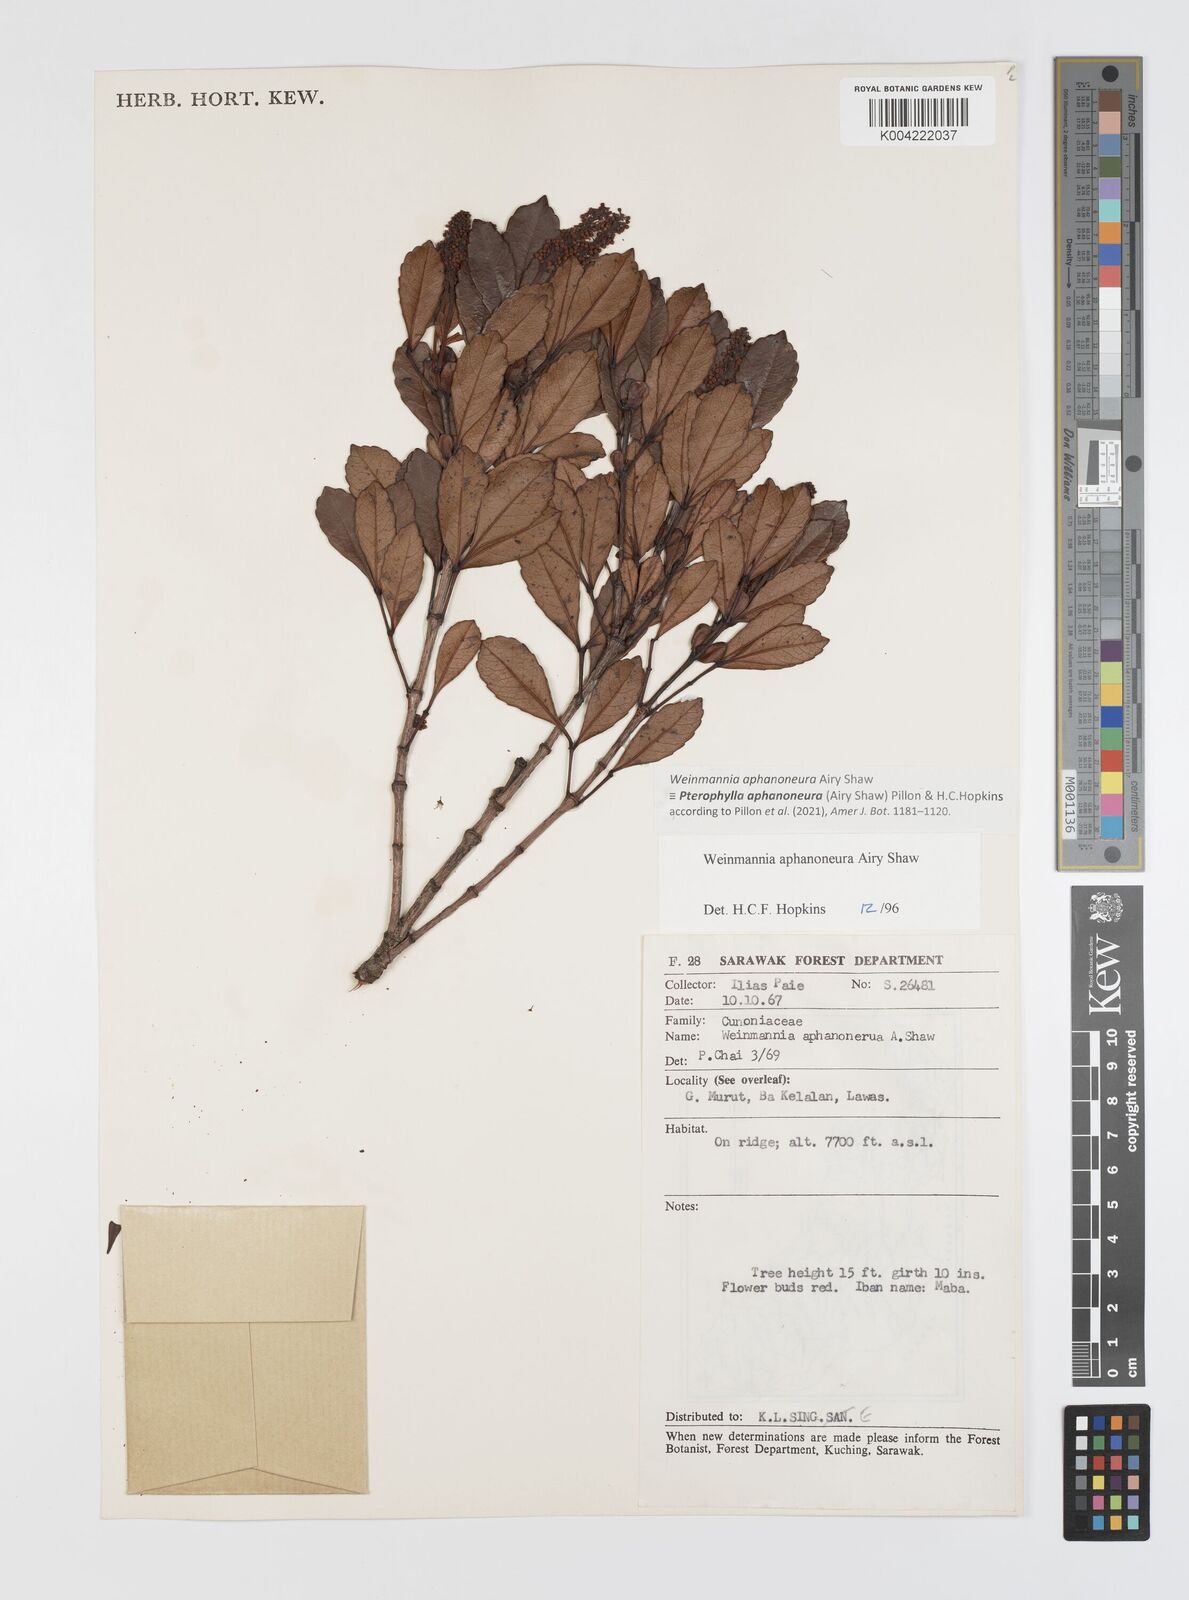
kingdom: Plantae
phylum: Tracheophyta
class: Magnoliopsida
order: Oxalidales
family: Cunoniaceae
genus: Pterophylla
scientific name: Pterophylla aphanoneura
